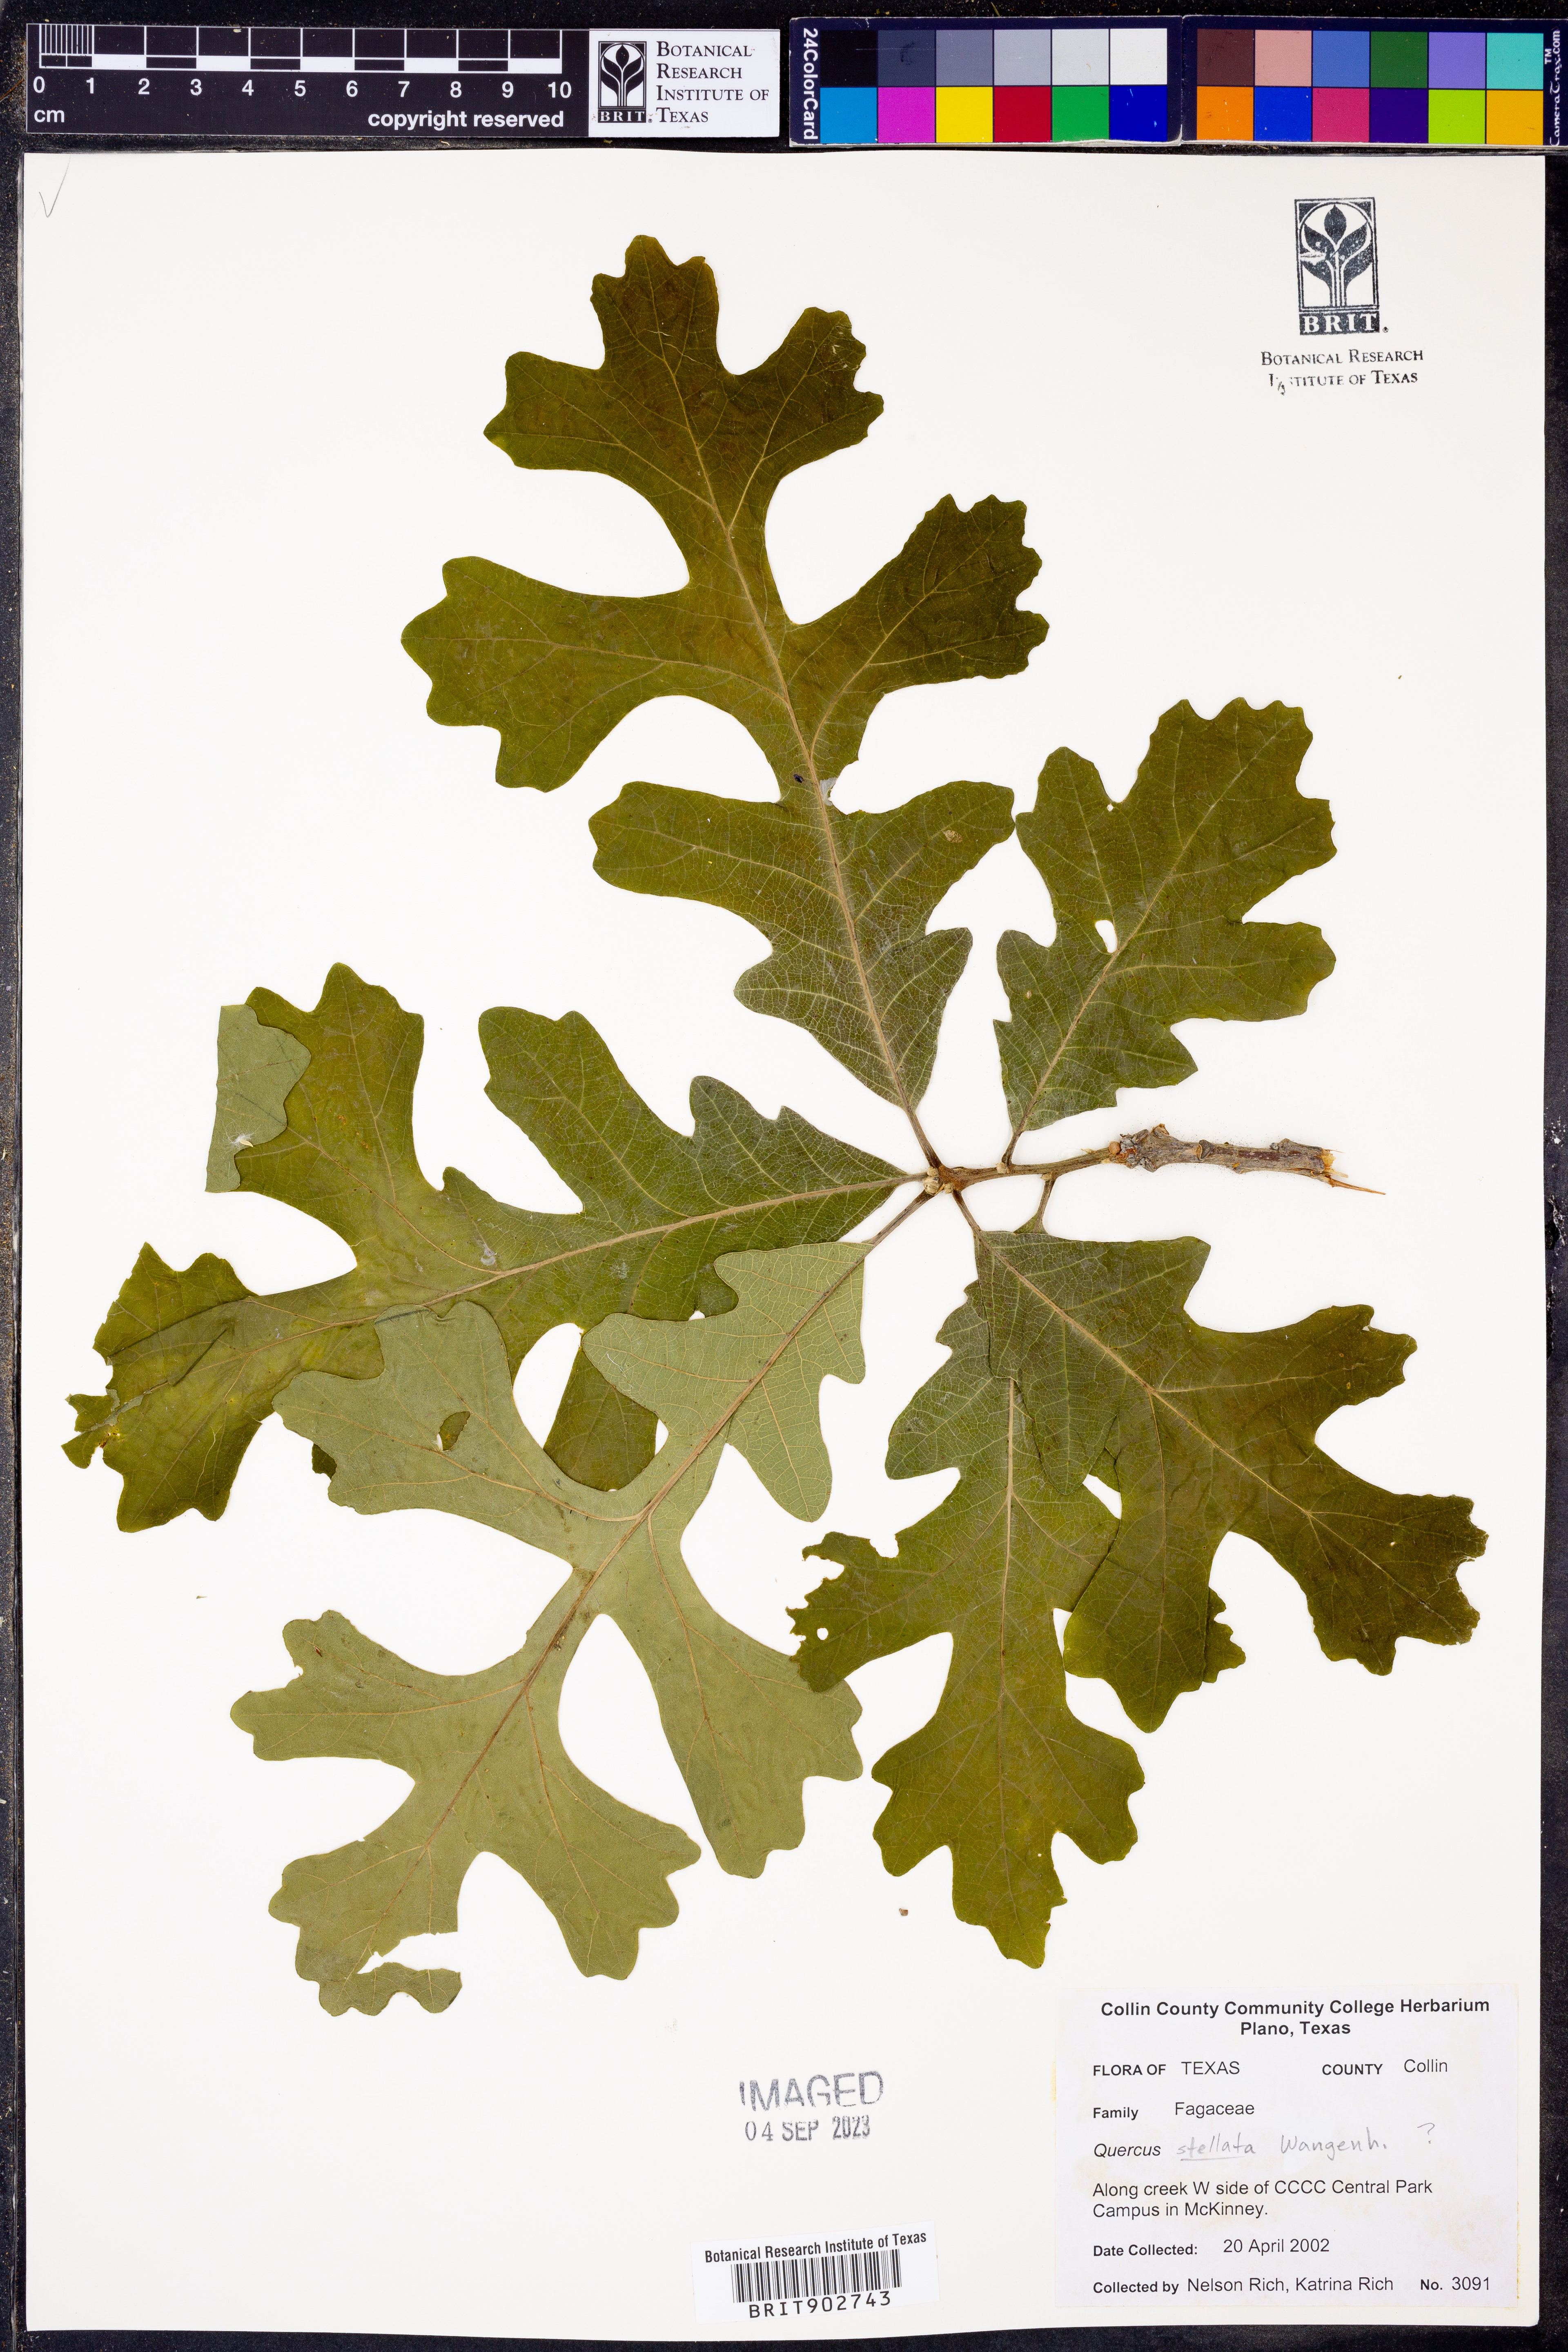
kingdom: Plantae
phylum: Tracheophyta
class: Magnoliopsida
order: Fagales
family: Fagaceae
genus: Quercus
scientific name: Quercus stellata
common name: Post oak
